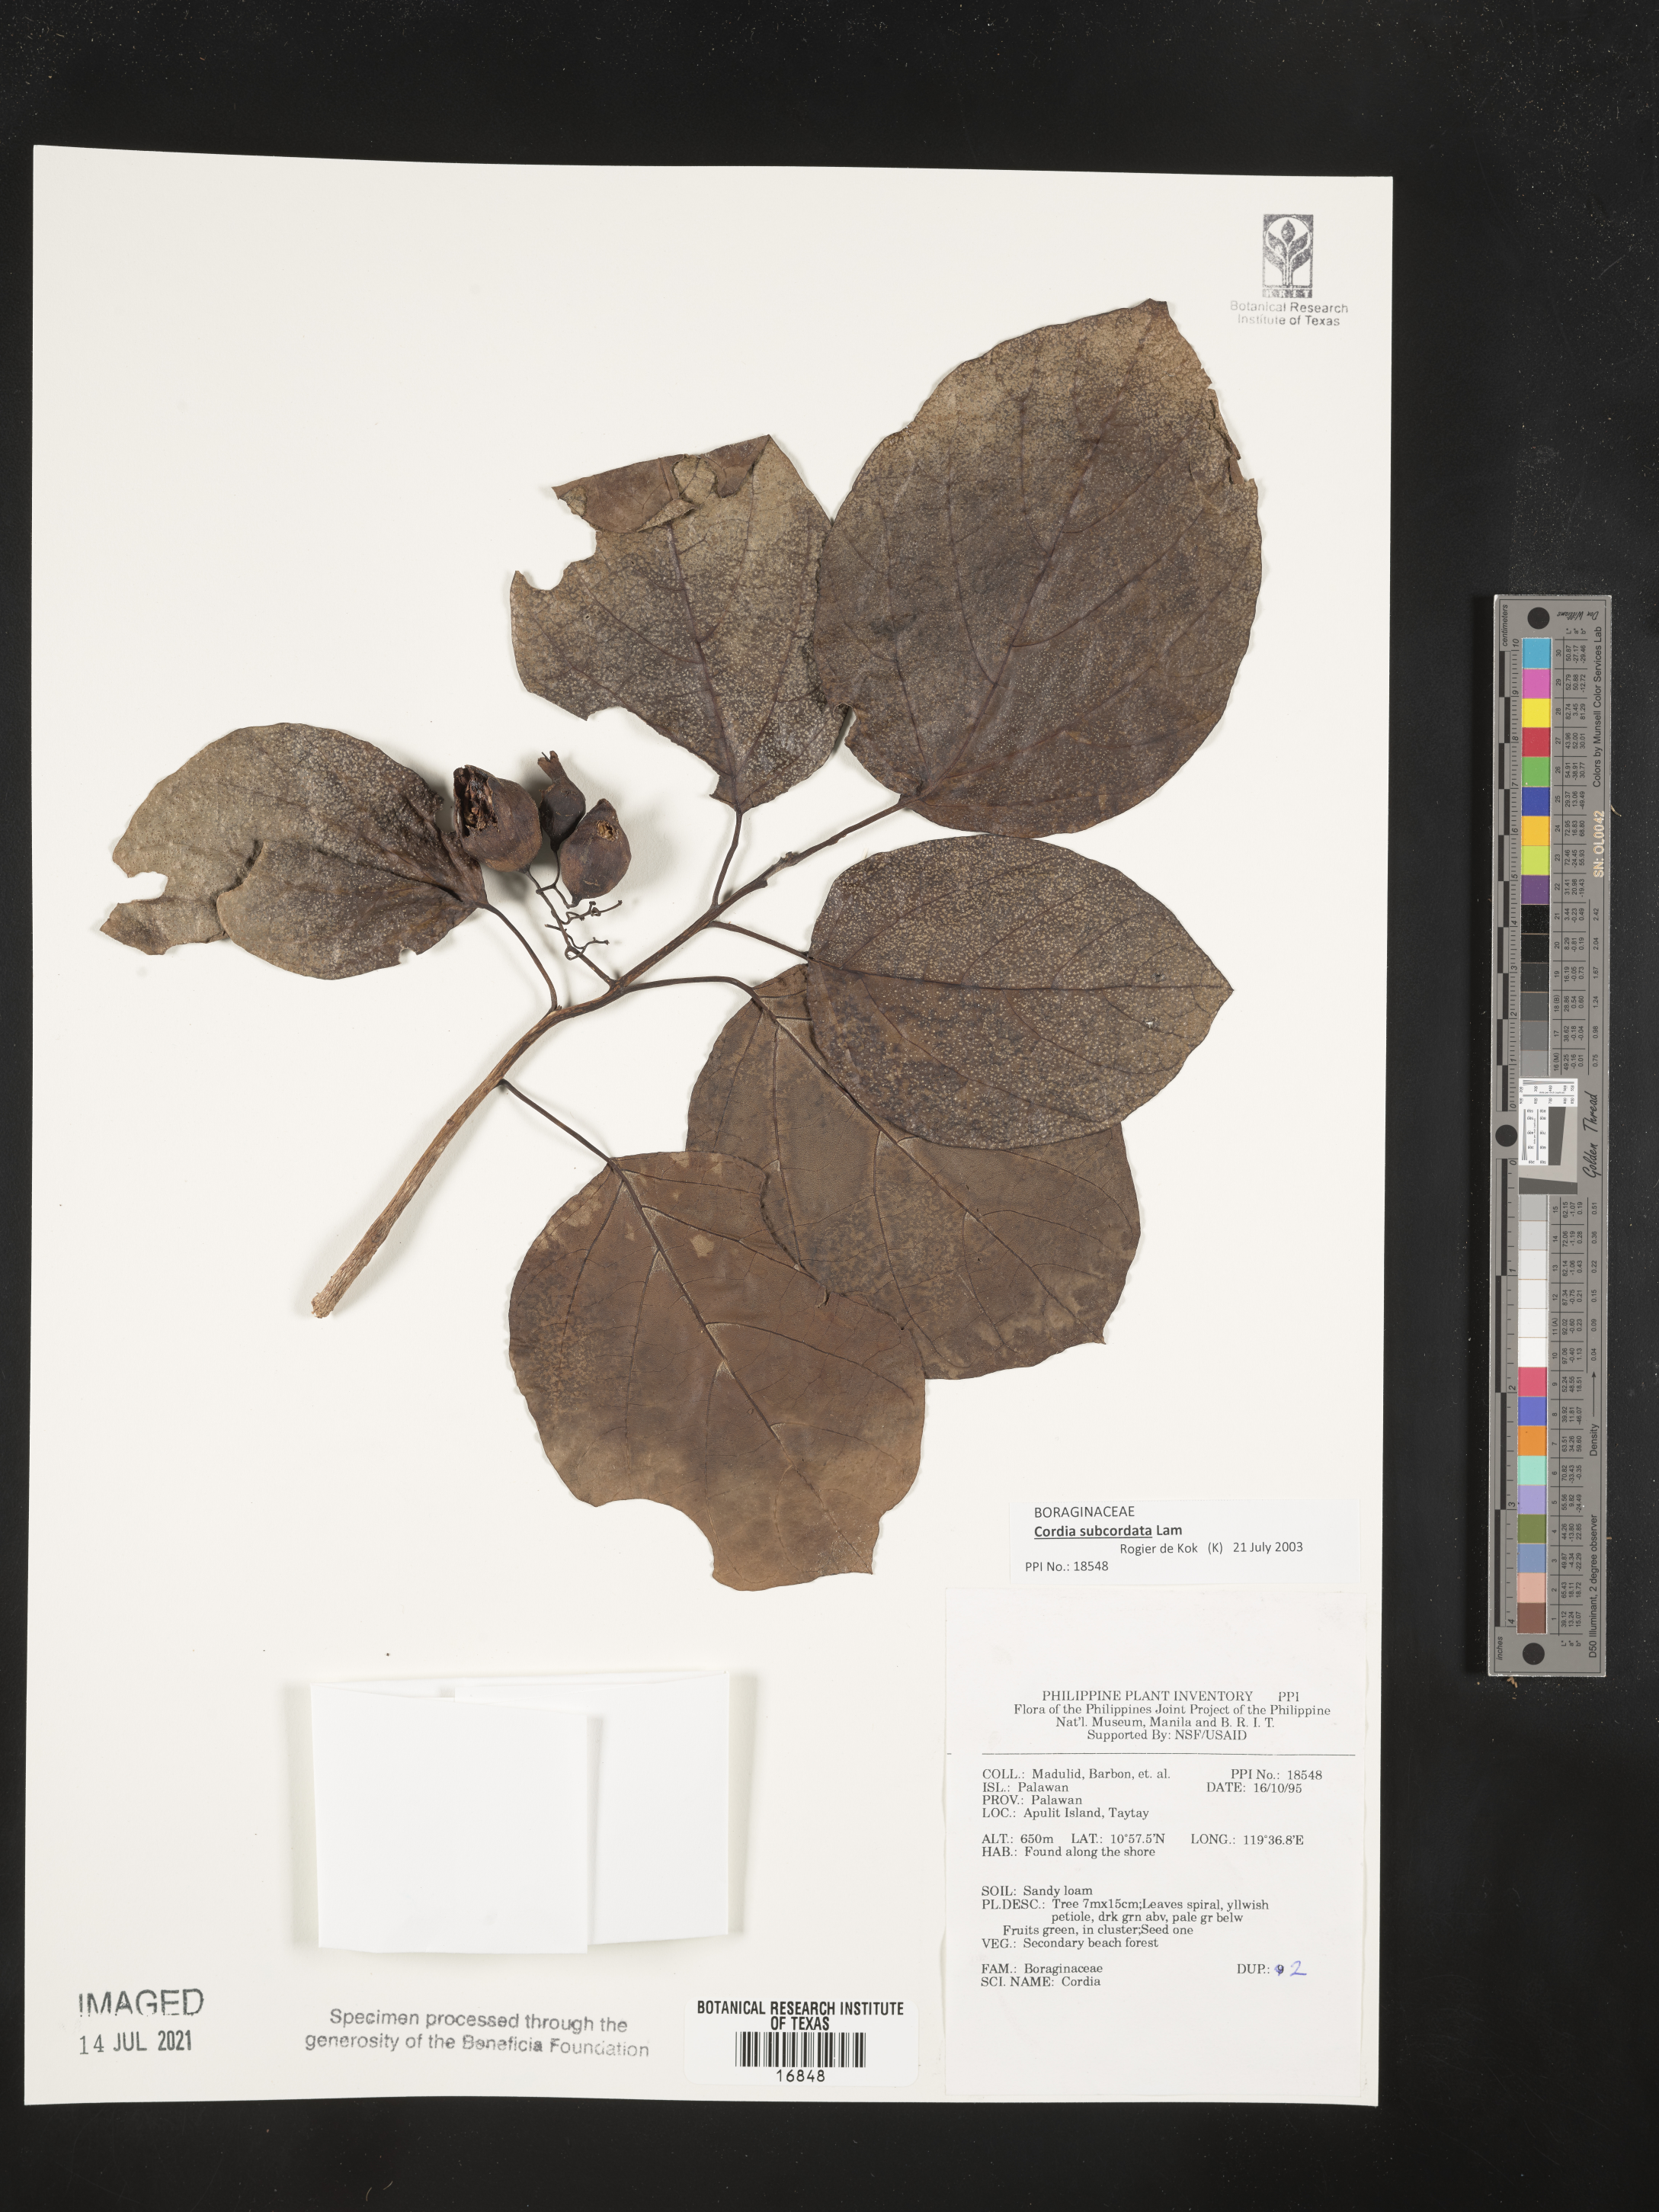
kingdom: Plantae
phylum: Tracheophyta
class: Magnoliopsida
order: Boraginales
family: Cordiaceae
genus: Cordia
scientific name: Cordia
